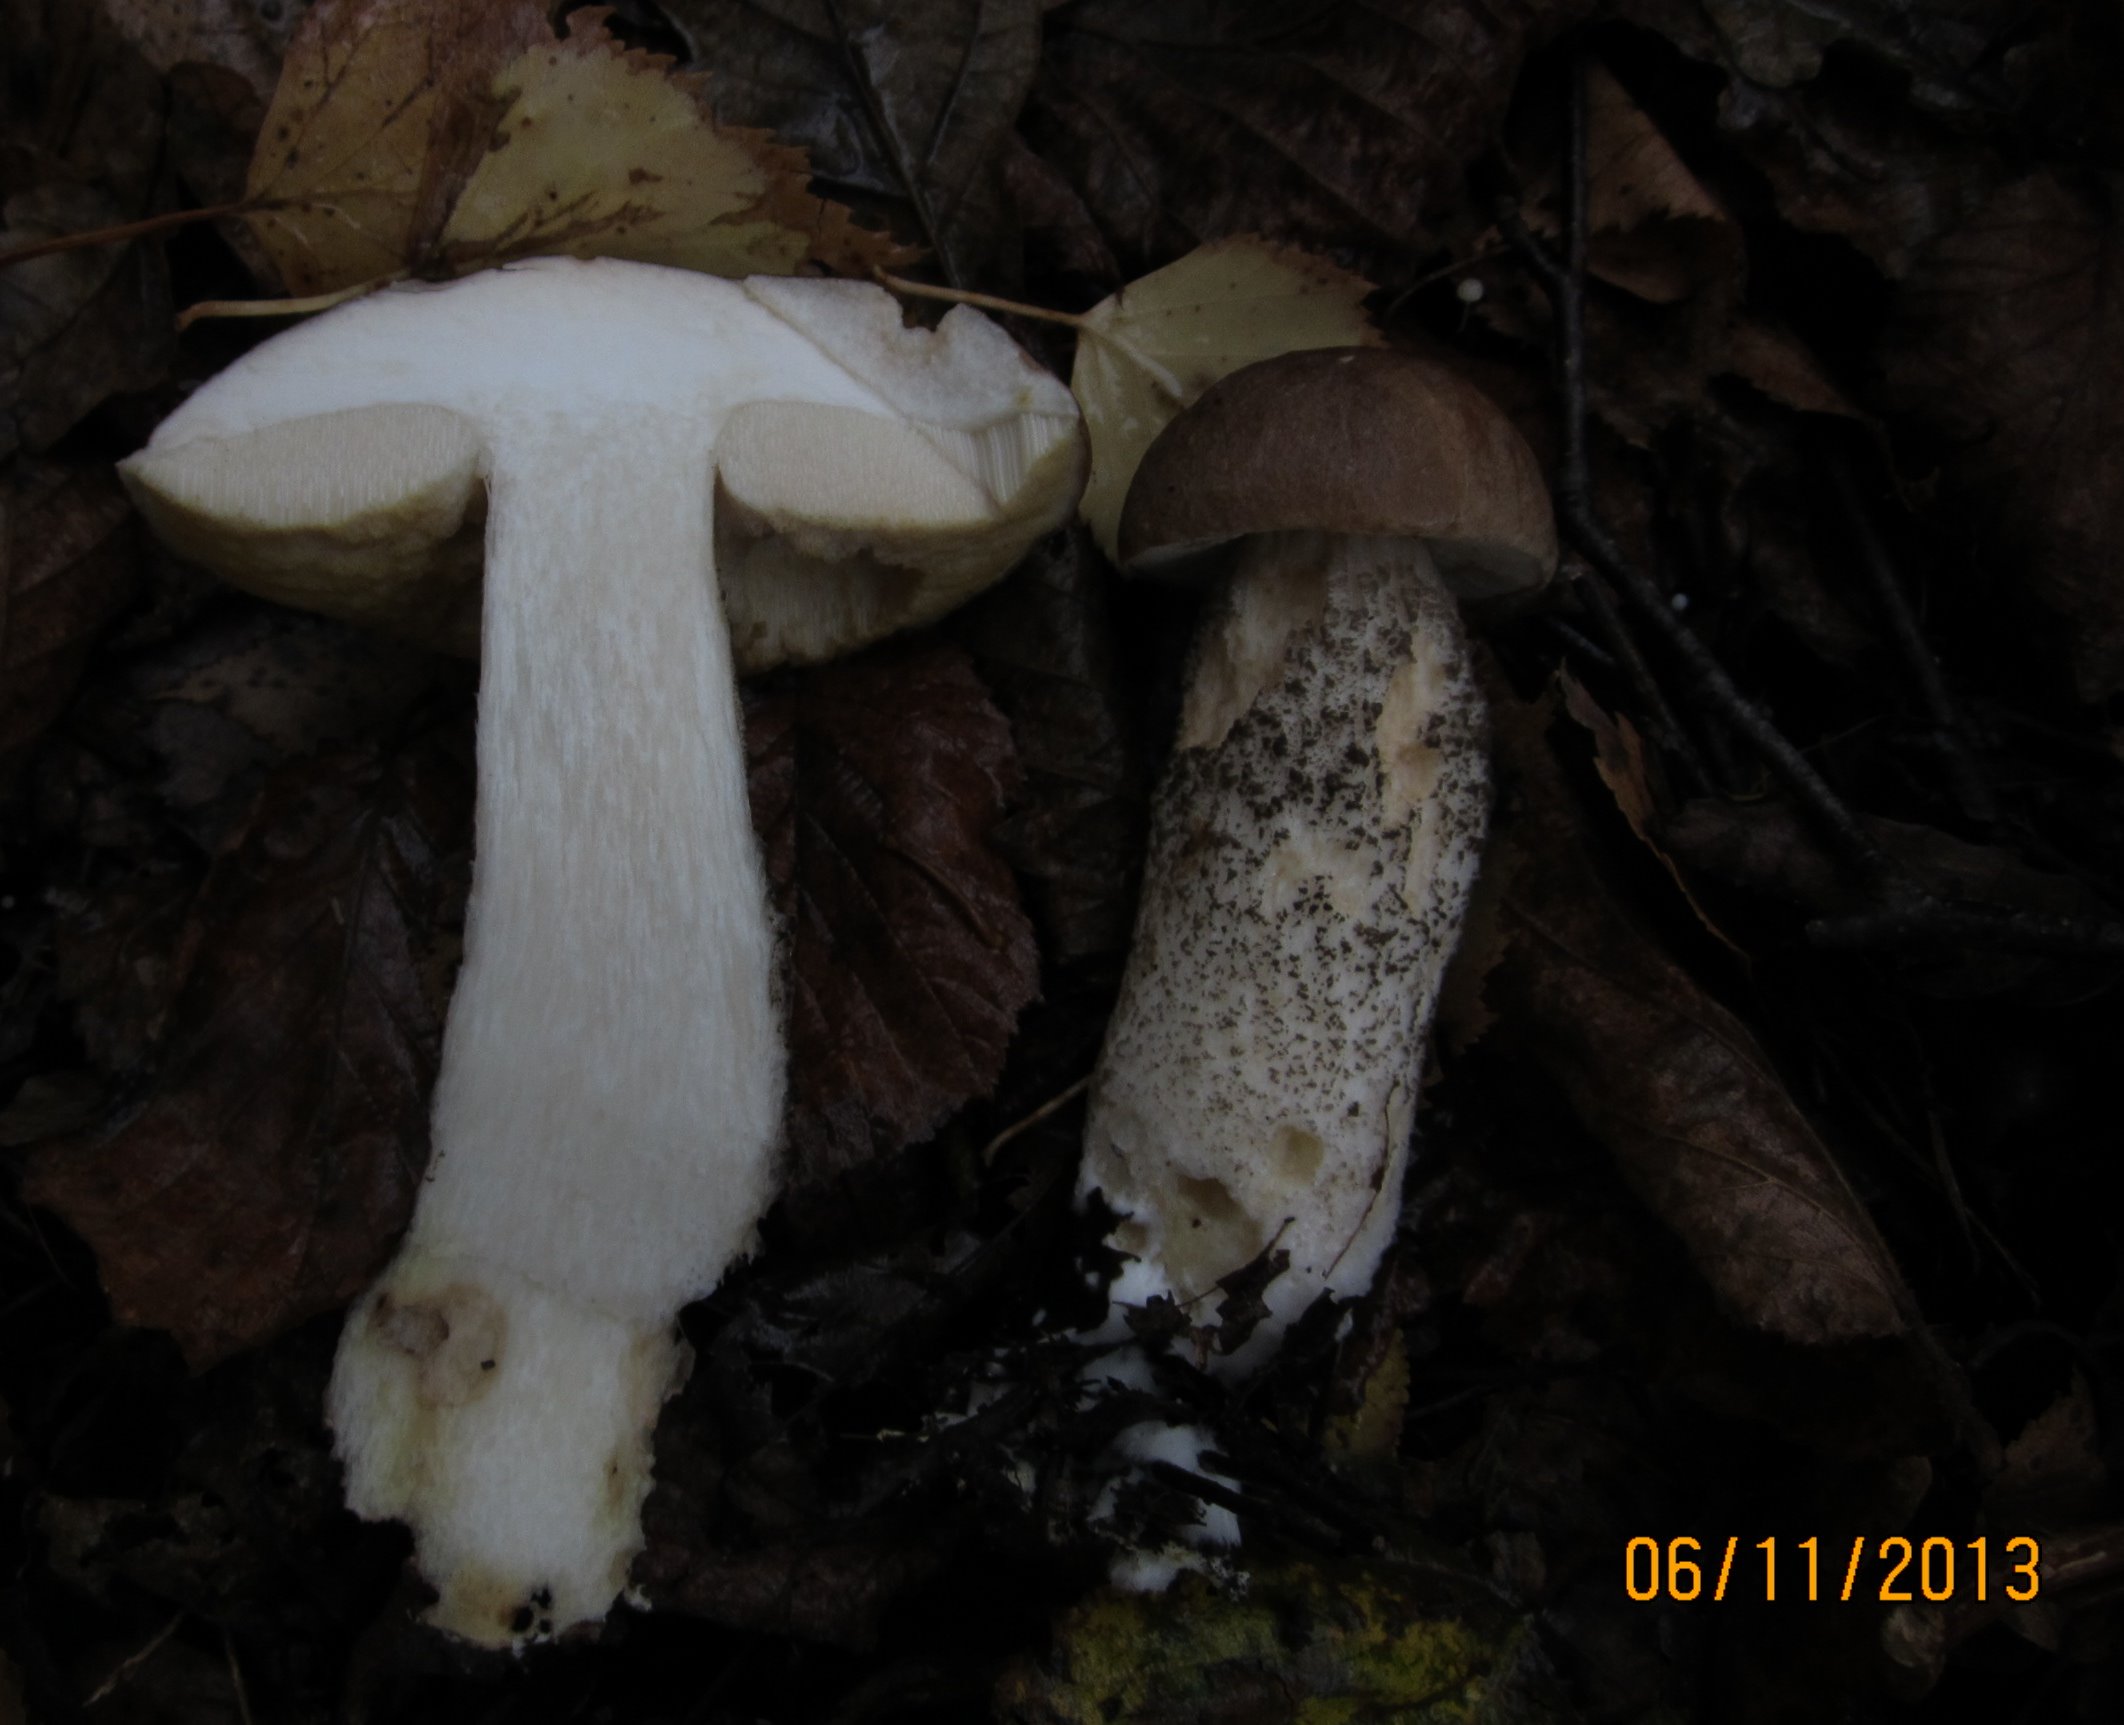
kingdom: Fungi
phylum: Basidiomycota
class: Agaricomycetes
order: Boletales
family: Boletaceae
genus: Leccinum
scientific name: Leccinum scabrum
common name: brun skælrørhat
